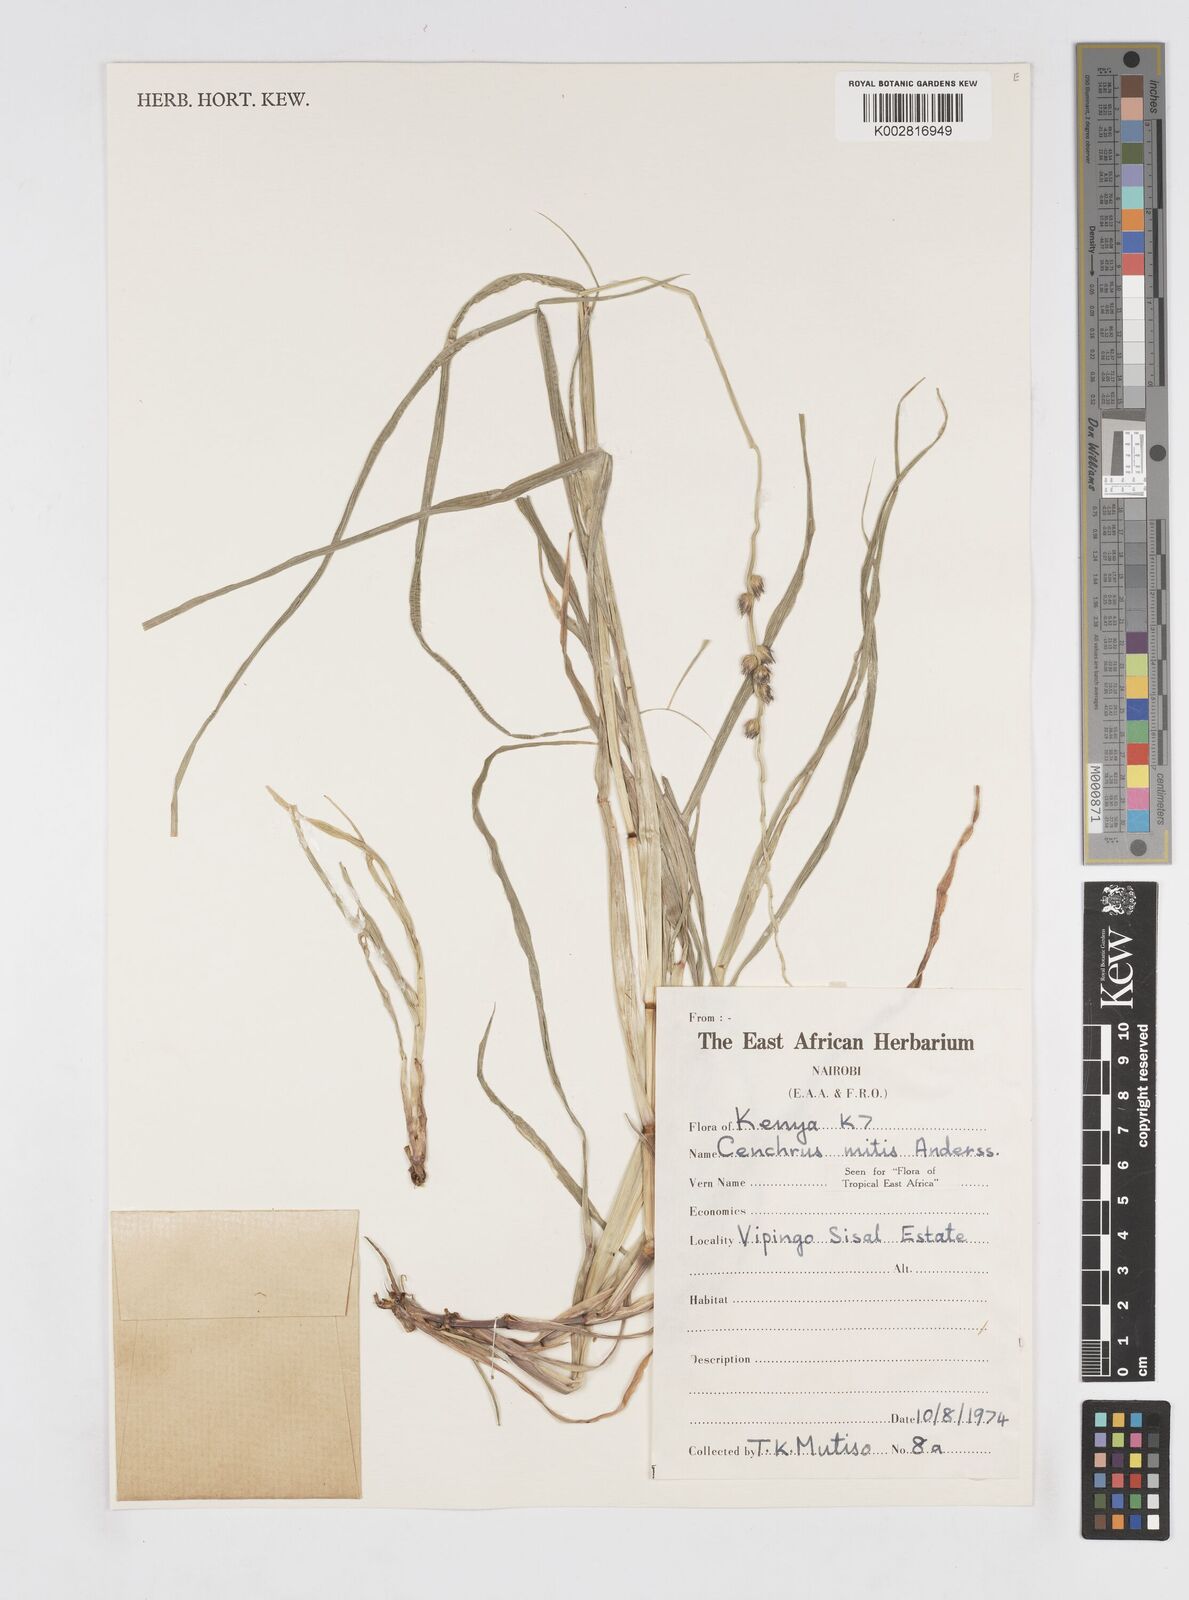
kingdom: Plantae
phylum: Tracheophyta
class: Liliopsida
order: Poales
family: Poaceae
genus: Cenchrus
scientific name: Cenchrus mitis
